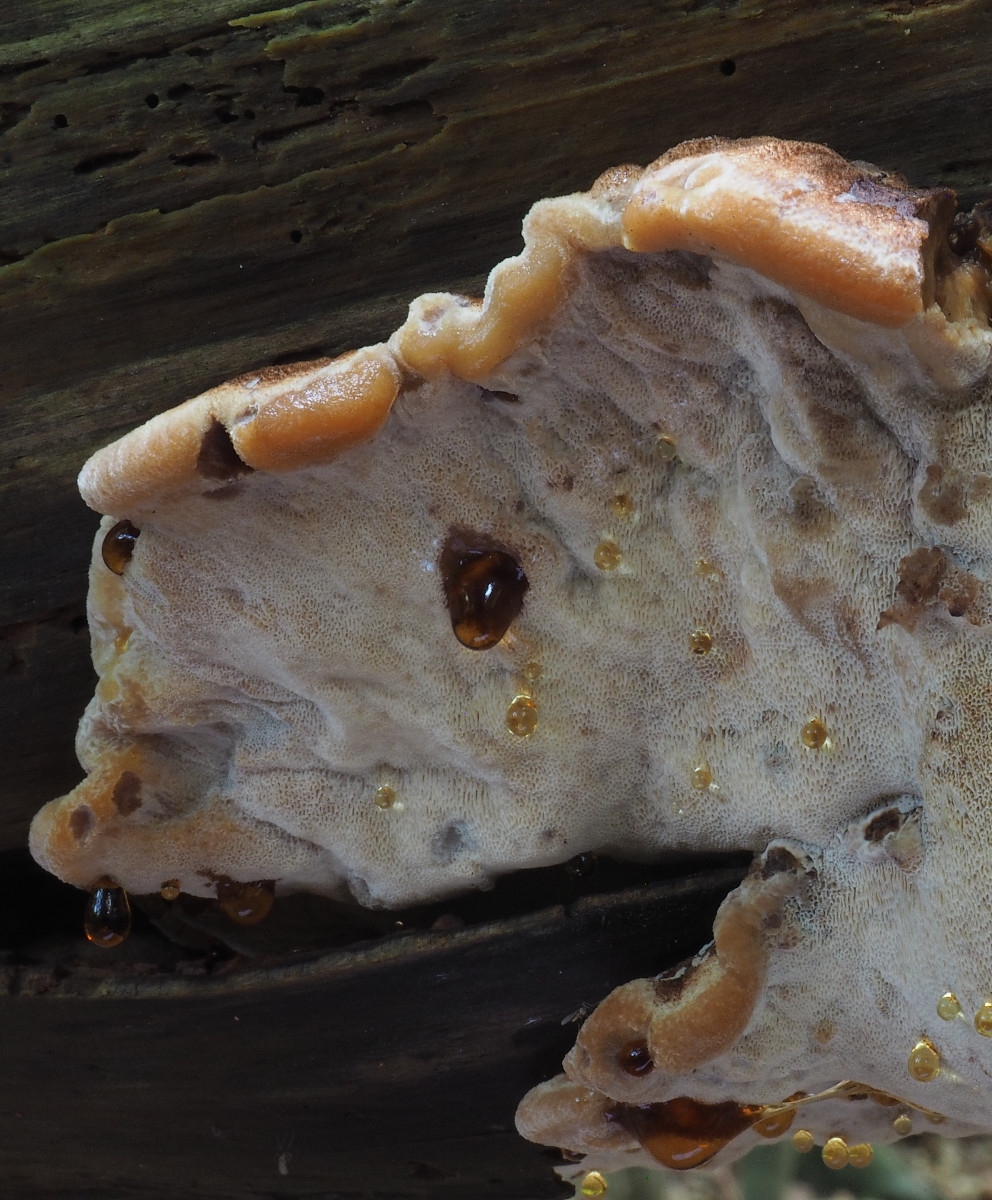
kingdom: Fungi
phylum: Basidiomycota
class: Agaricomycetes
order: Polyporales
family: Ischnodermataceae
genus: Ischnoderma
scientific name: Ischnoderma benzoinum
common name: gran-tjæreporesvamp
